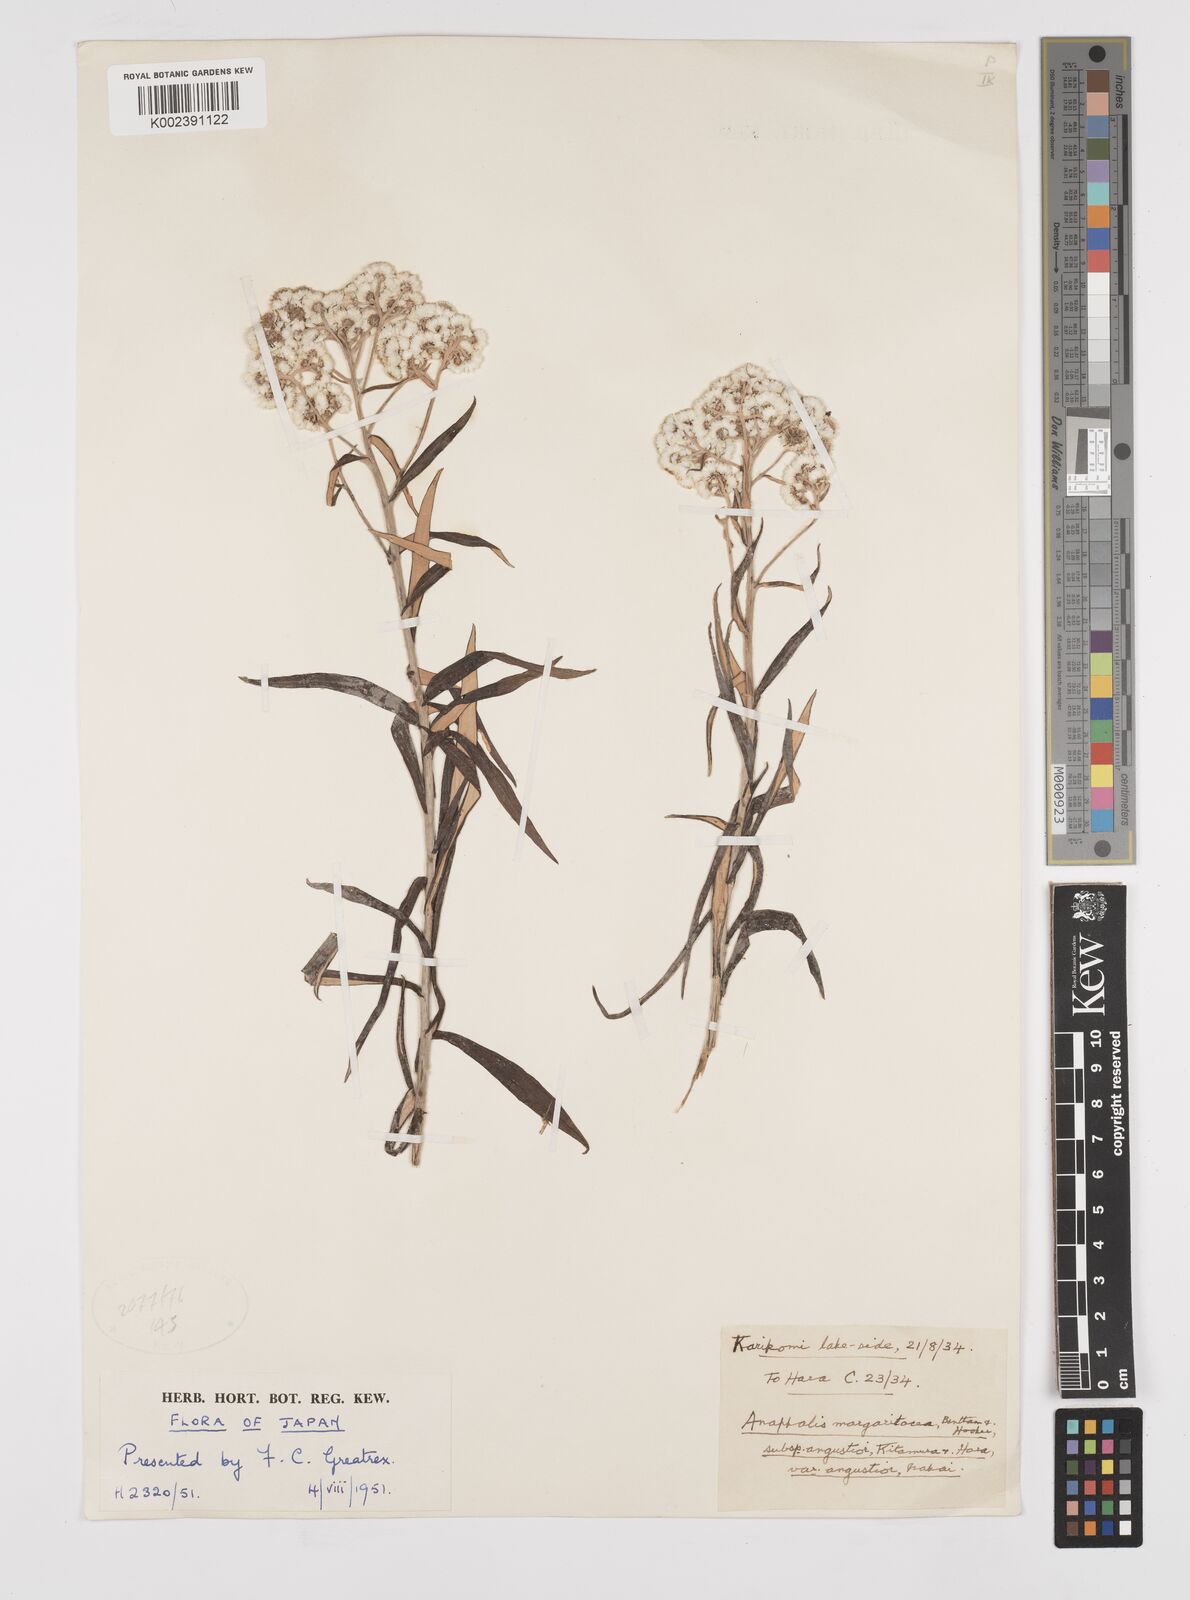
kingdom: Plantae
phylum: Tracheophyta
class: Magnoliopsida
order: Asterales
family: Asteraceae
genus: Anaphalis
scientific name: Anaphalis margaritacea
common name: Pearly everlasting
